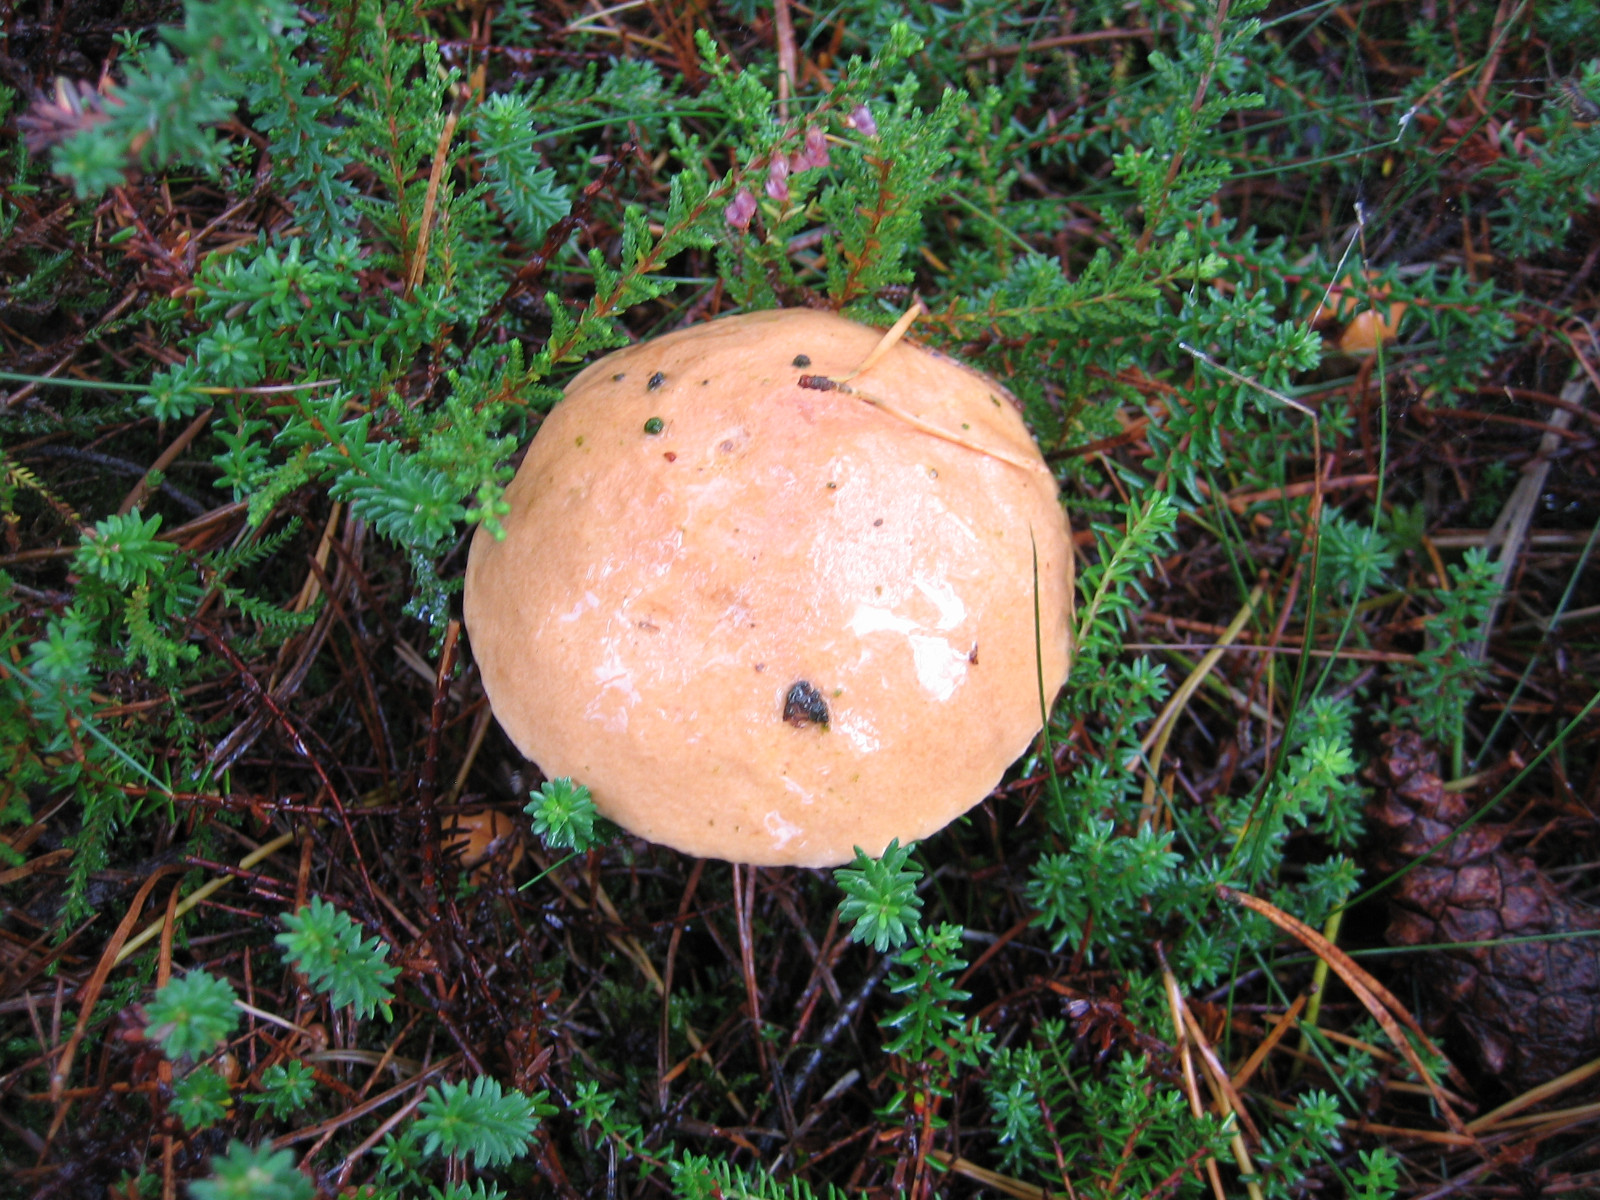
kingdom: Fungi
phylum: Basidiomycota
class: Agaricomycetes
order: Boletales
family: Suillaceae
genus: Suillus
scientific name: Suillus bovinus
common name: grovporet slimrørhat
